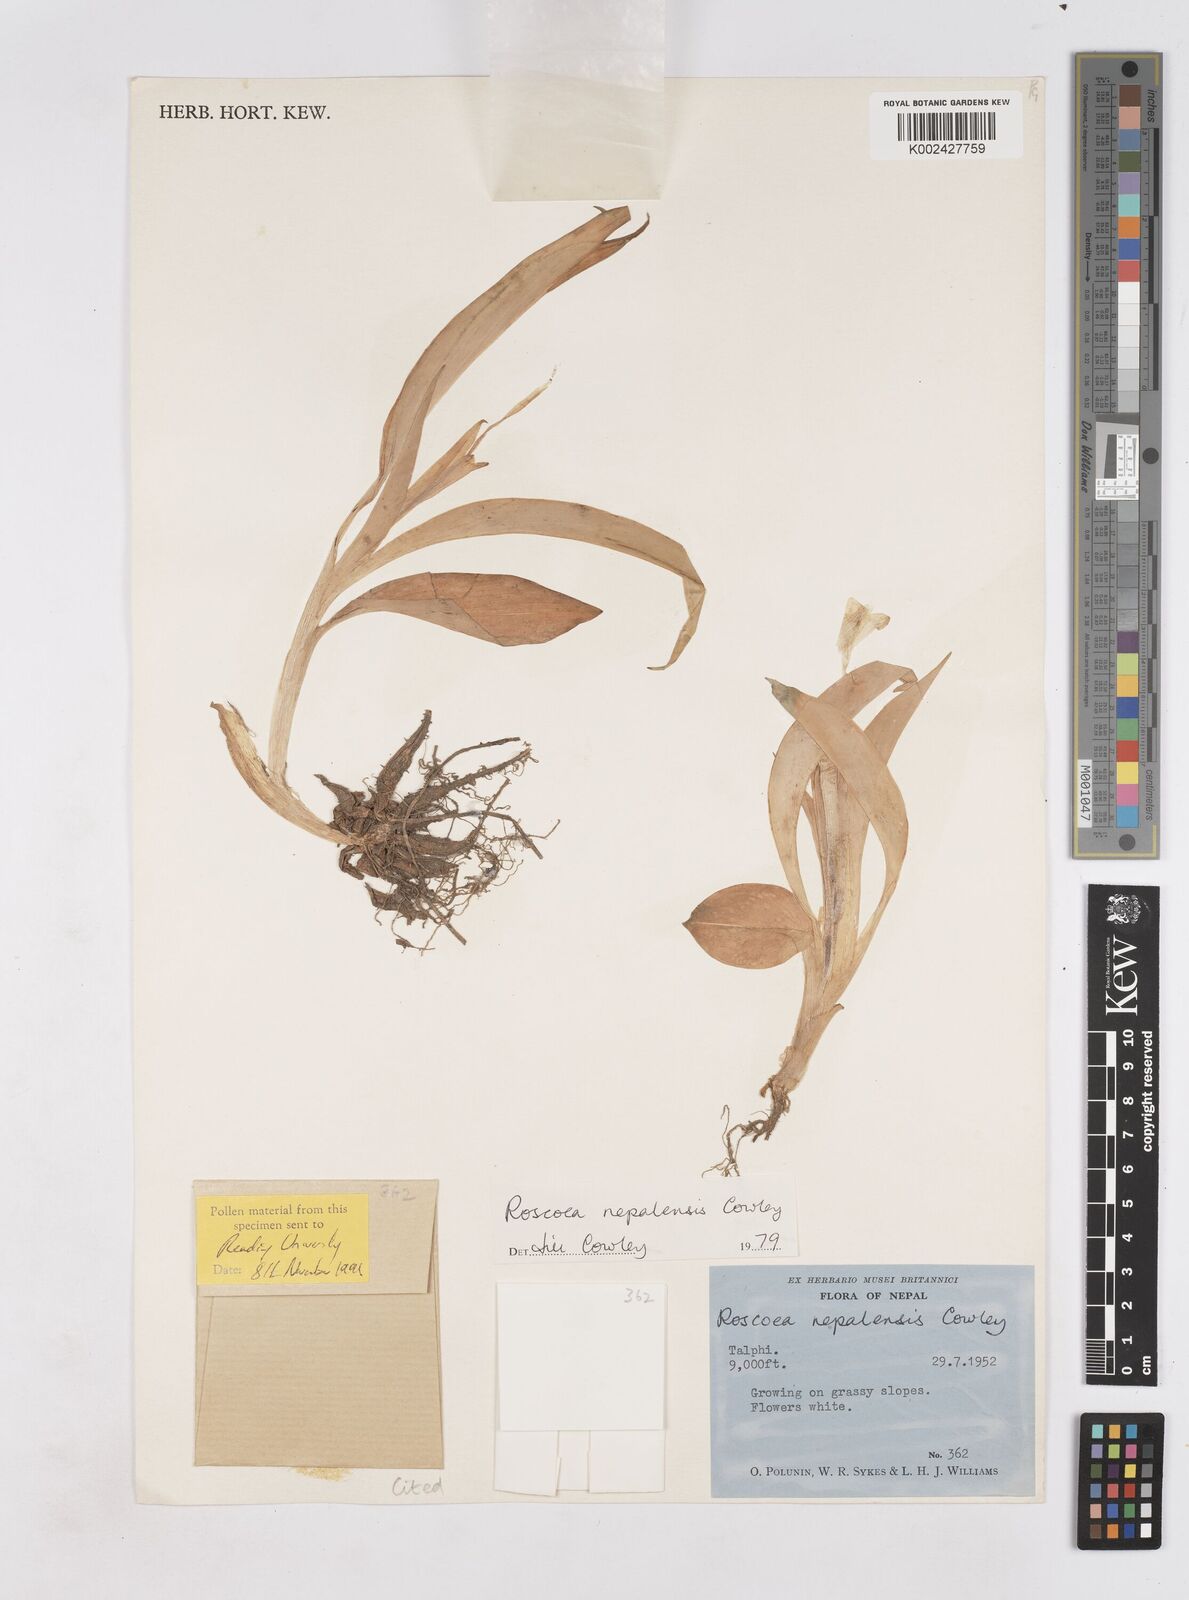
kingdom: Plantae
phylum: Tracheophyta
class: Liliopsida
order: Zingiberales
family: Zingiberaceae
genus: Roscoea
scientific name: Roscoea nepalensis
